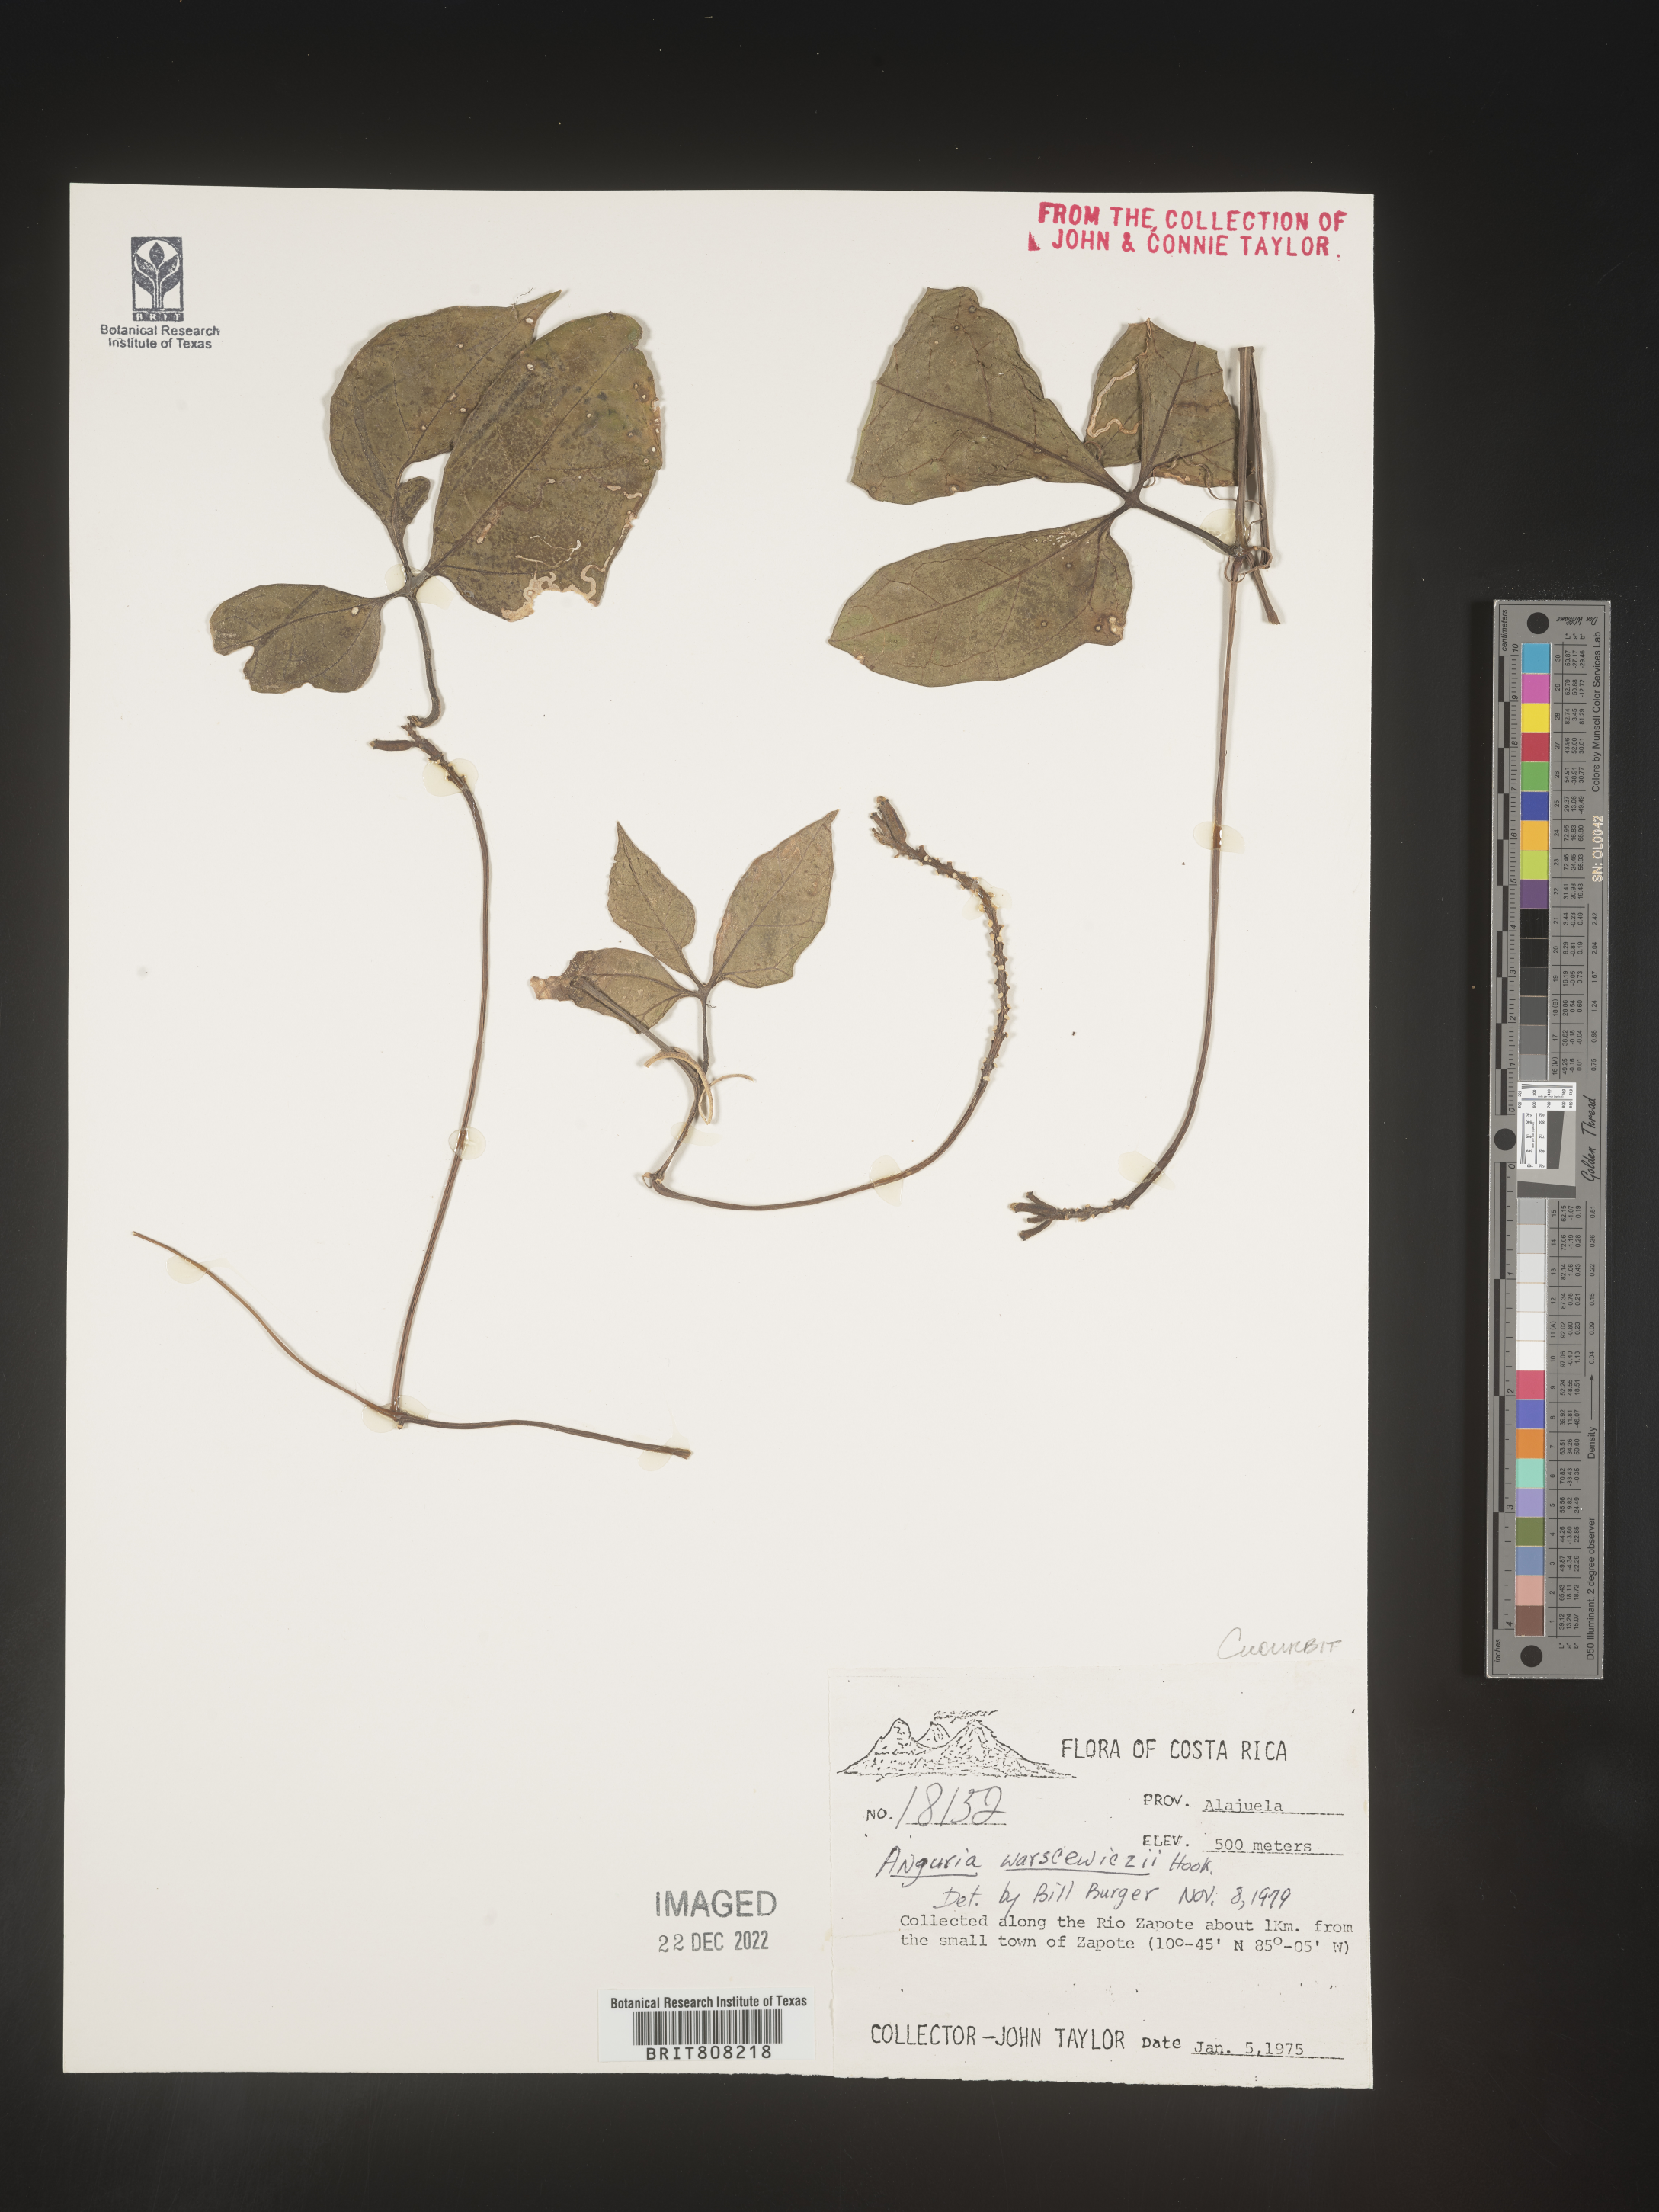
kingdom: Plantae
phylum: Tracheophyta
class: Magnoliopsida
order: Cucurbitales
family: Cucurbitaceae
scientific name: Cucurbitaceae
